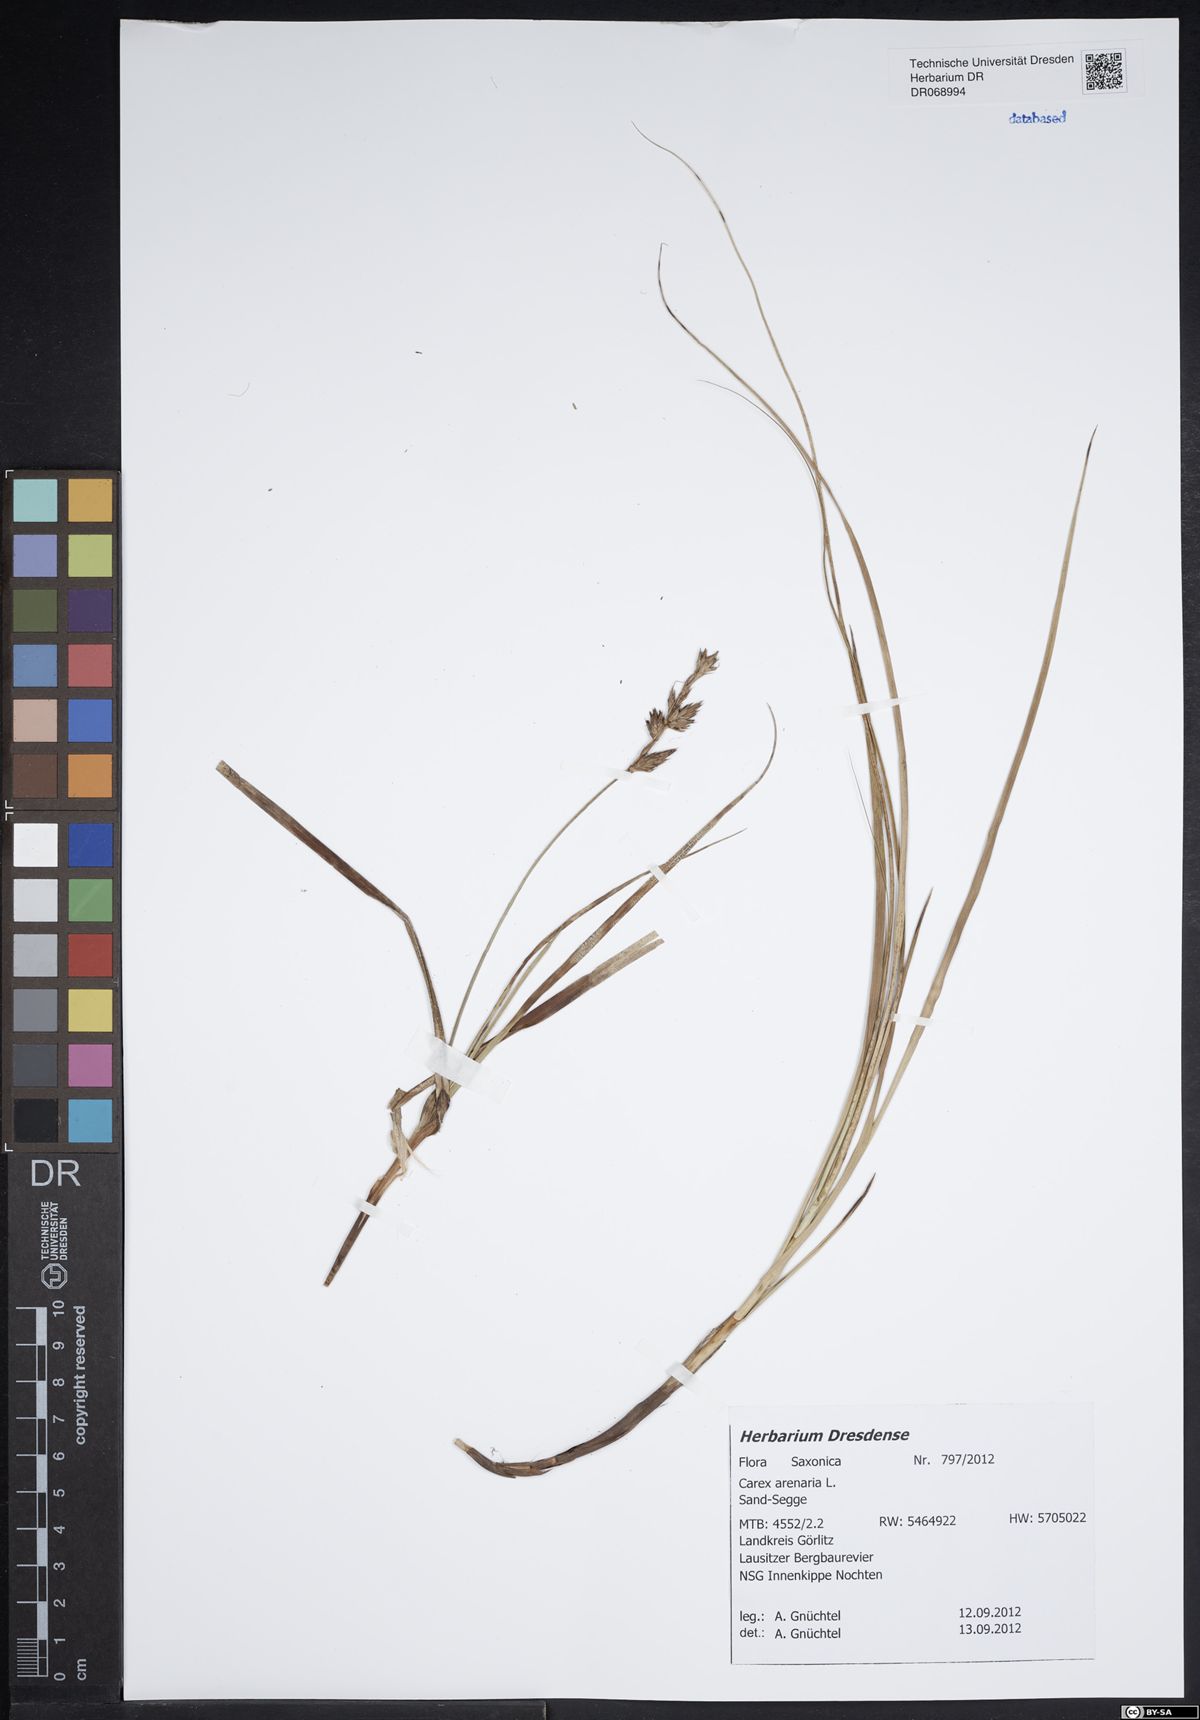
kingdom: Plantae
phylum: Tracheophyta
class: Liliopsida
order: Poales
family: Cyperaceae
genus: Carex
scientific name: Carex arenaria
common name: Sand sedge
